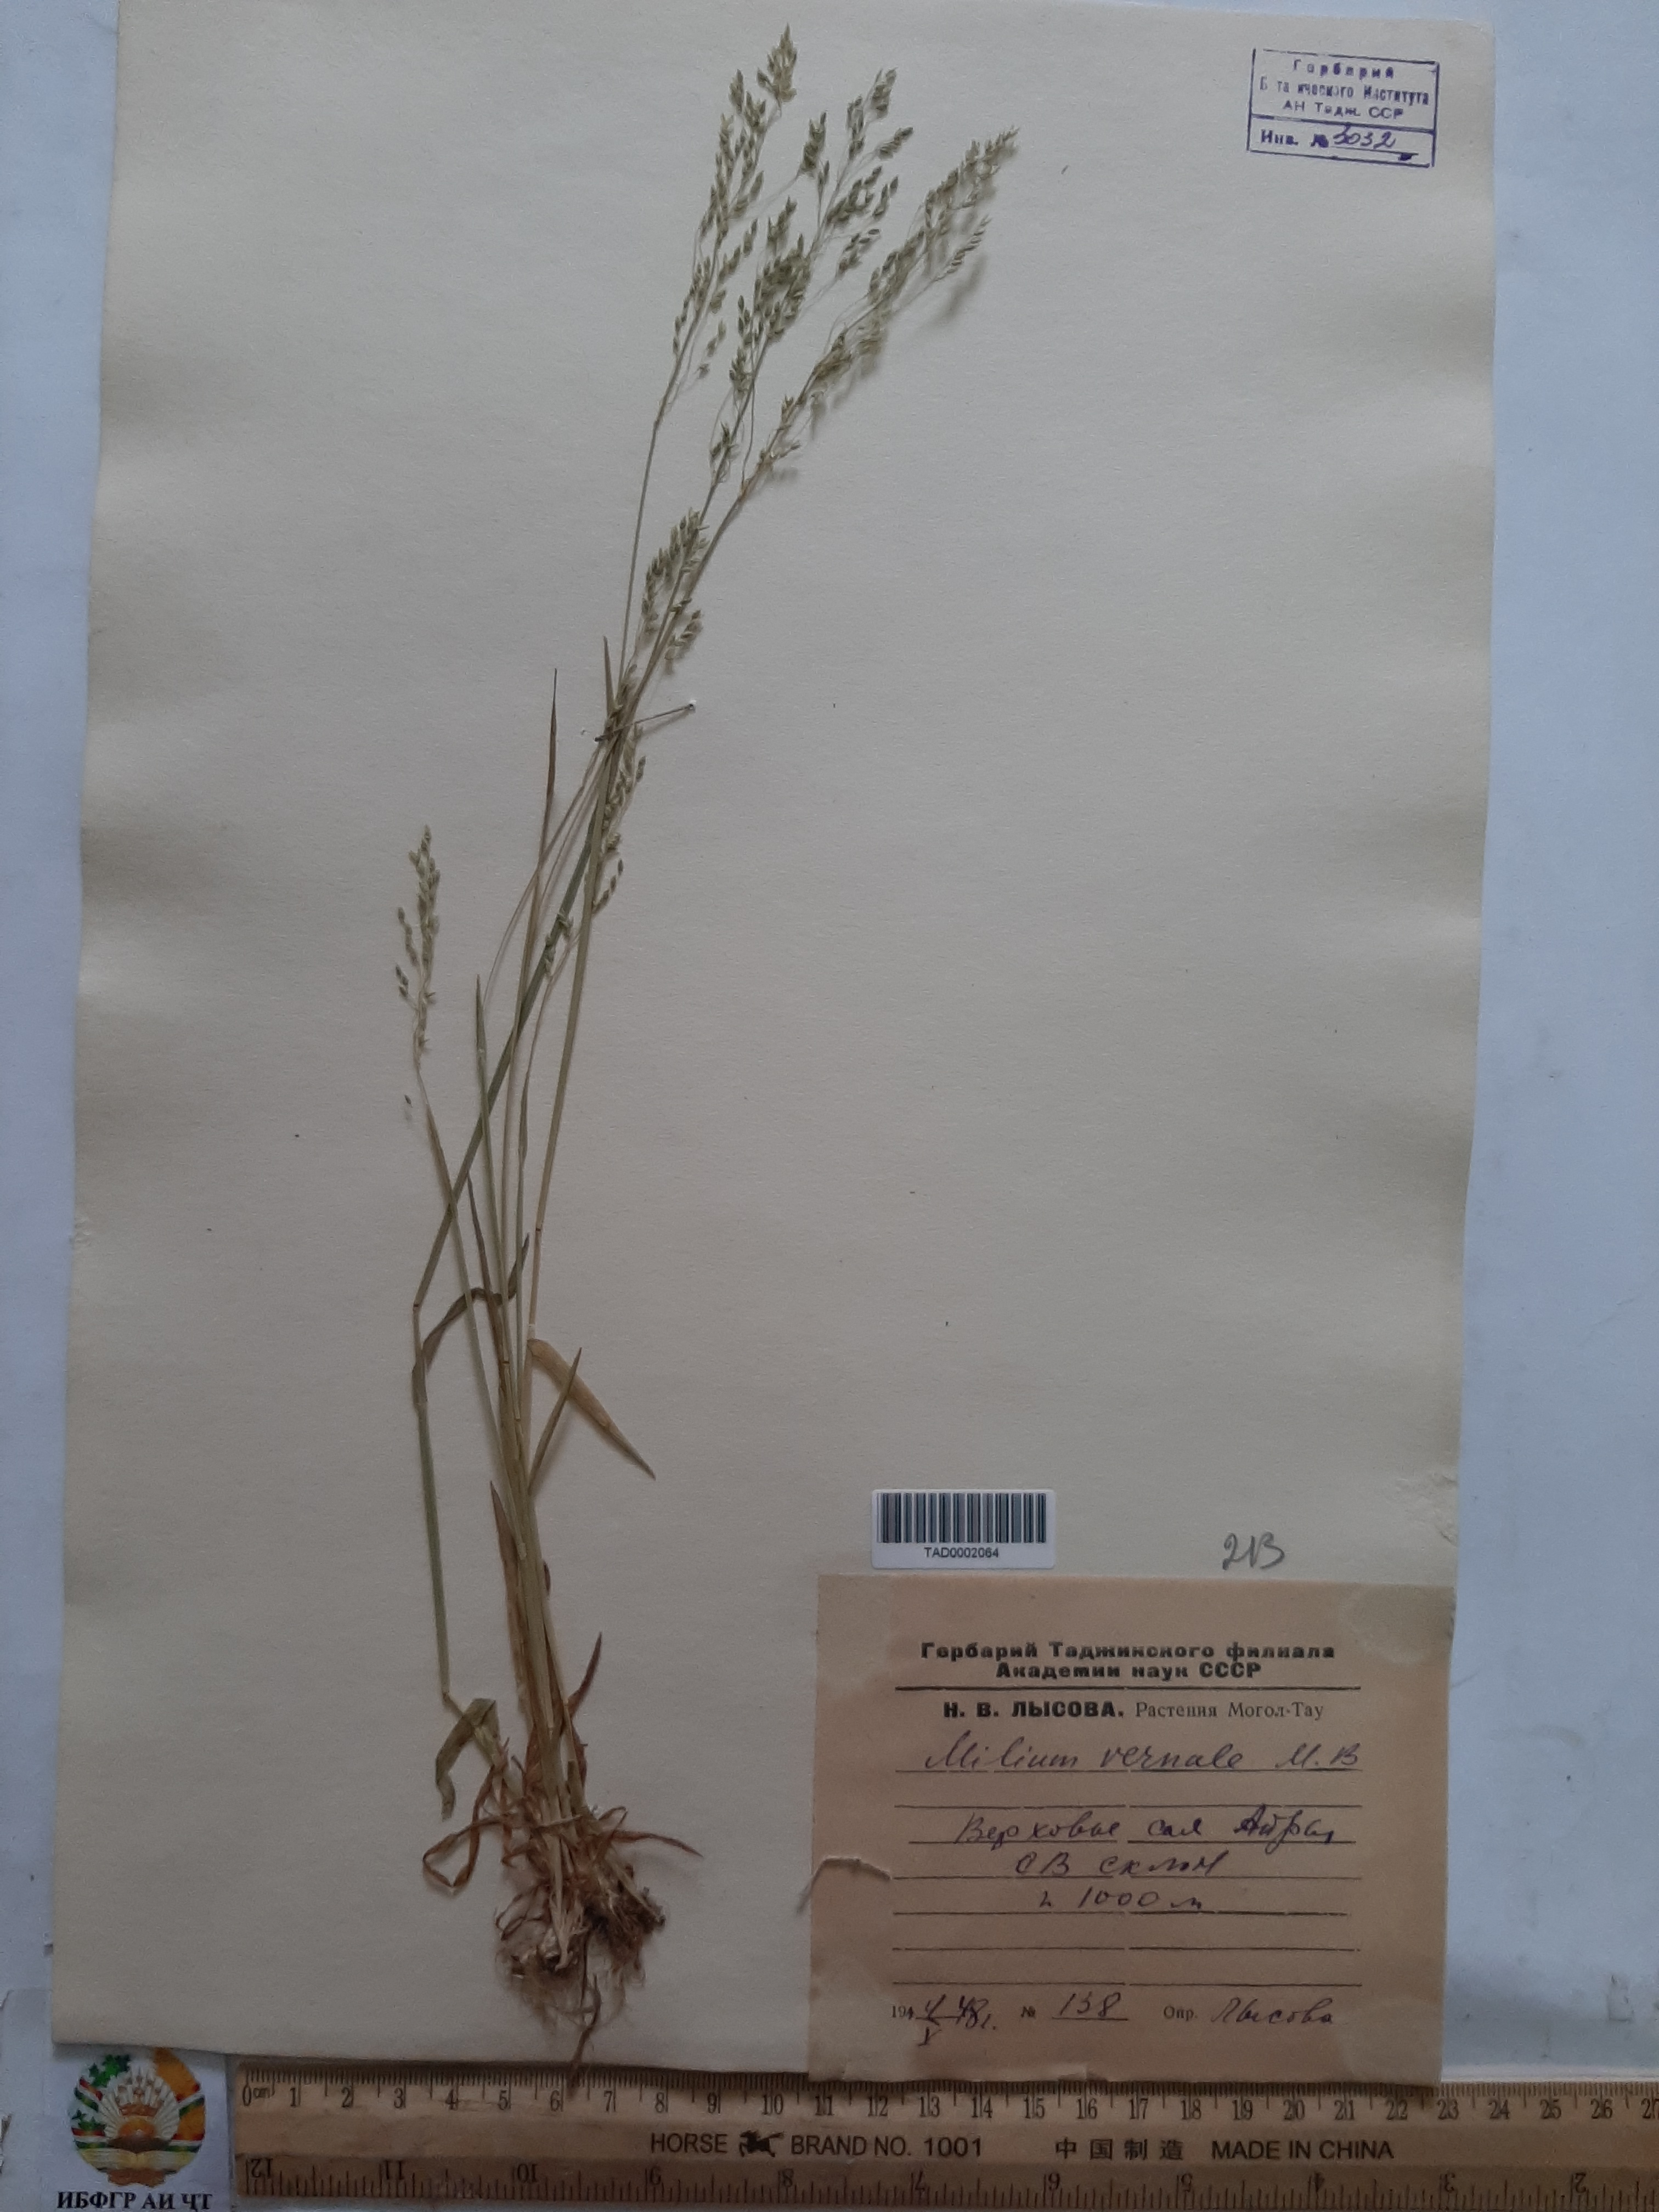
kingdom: Plantae
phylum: Tracheophyta
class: Liliopsida
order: Poales
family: Poaceae
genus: Milium
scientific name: Milium vernale
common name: Early millet
